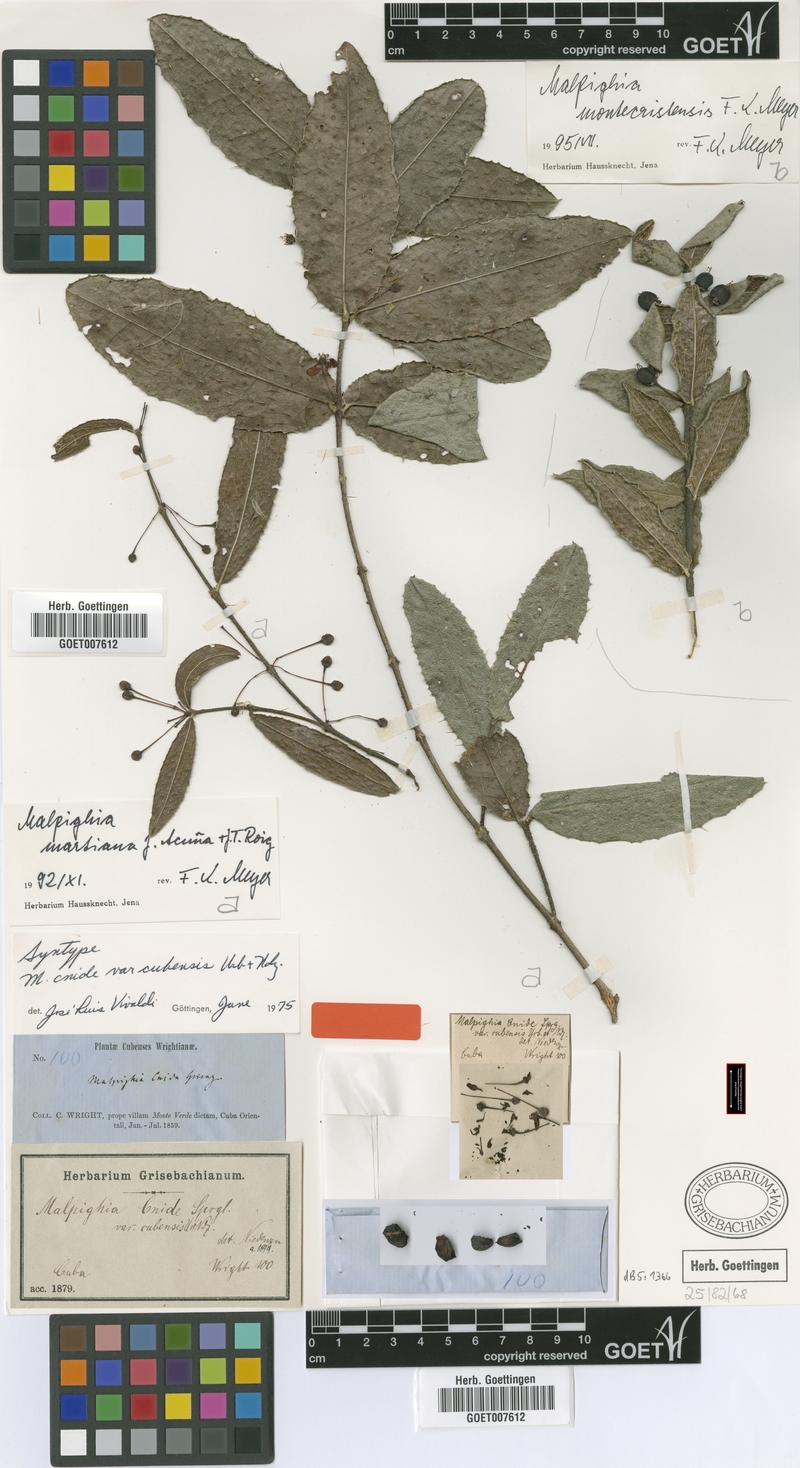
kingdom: Plantae
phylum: Tracheophyta
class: Magnoliopsida
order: Malpighiales
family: Malpighiaceae
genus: Malpighia
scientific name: Malpighia martiana
